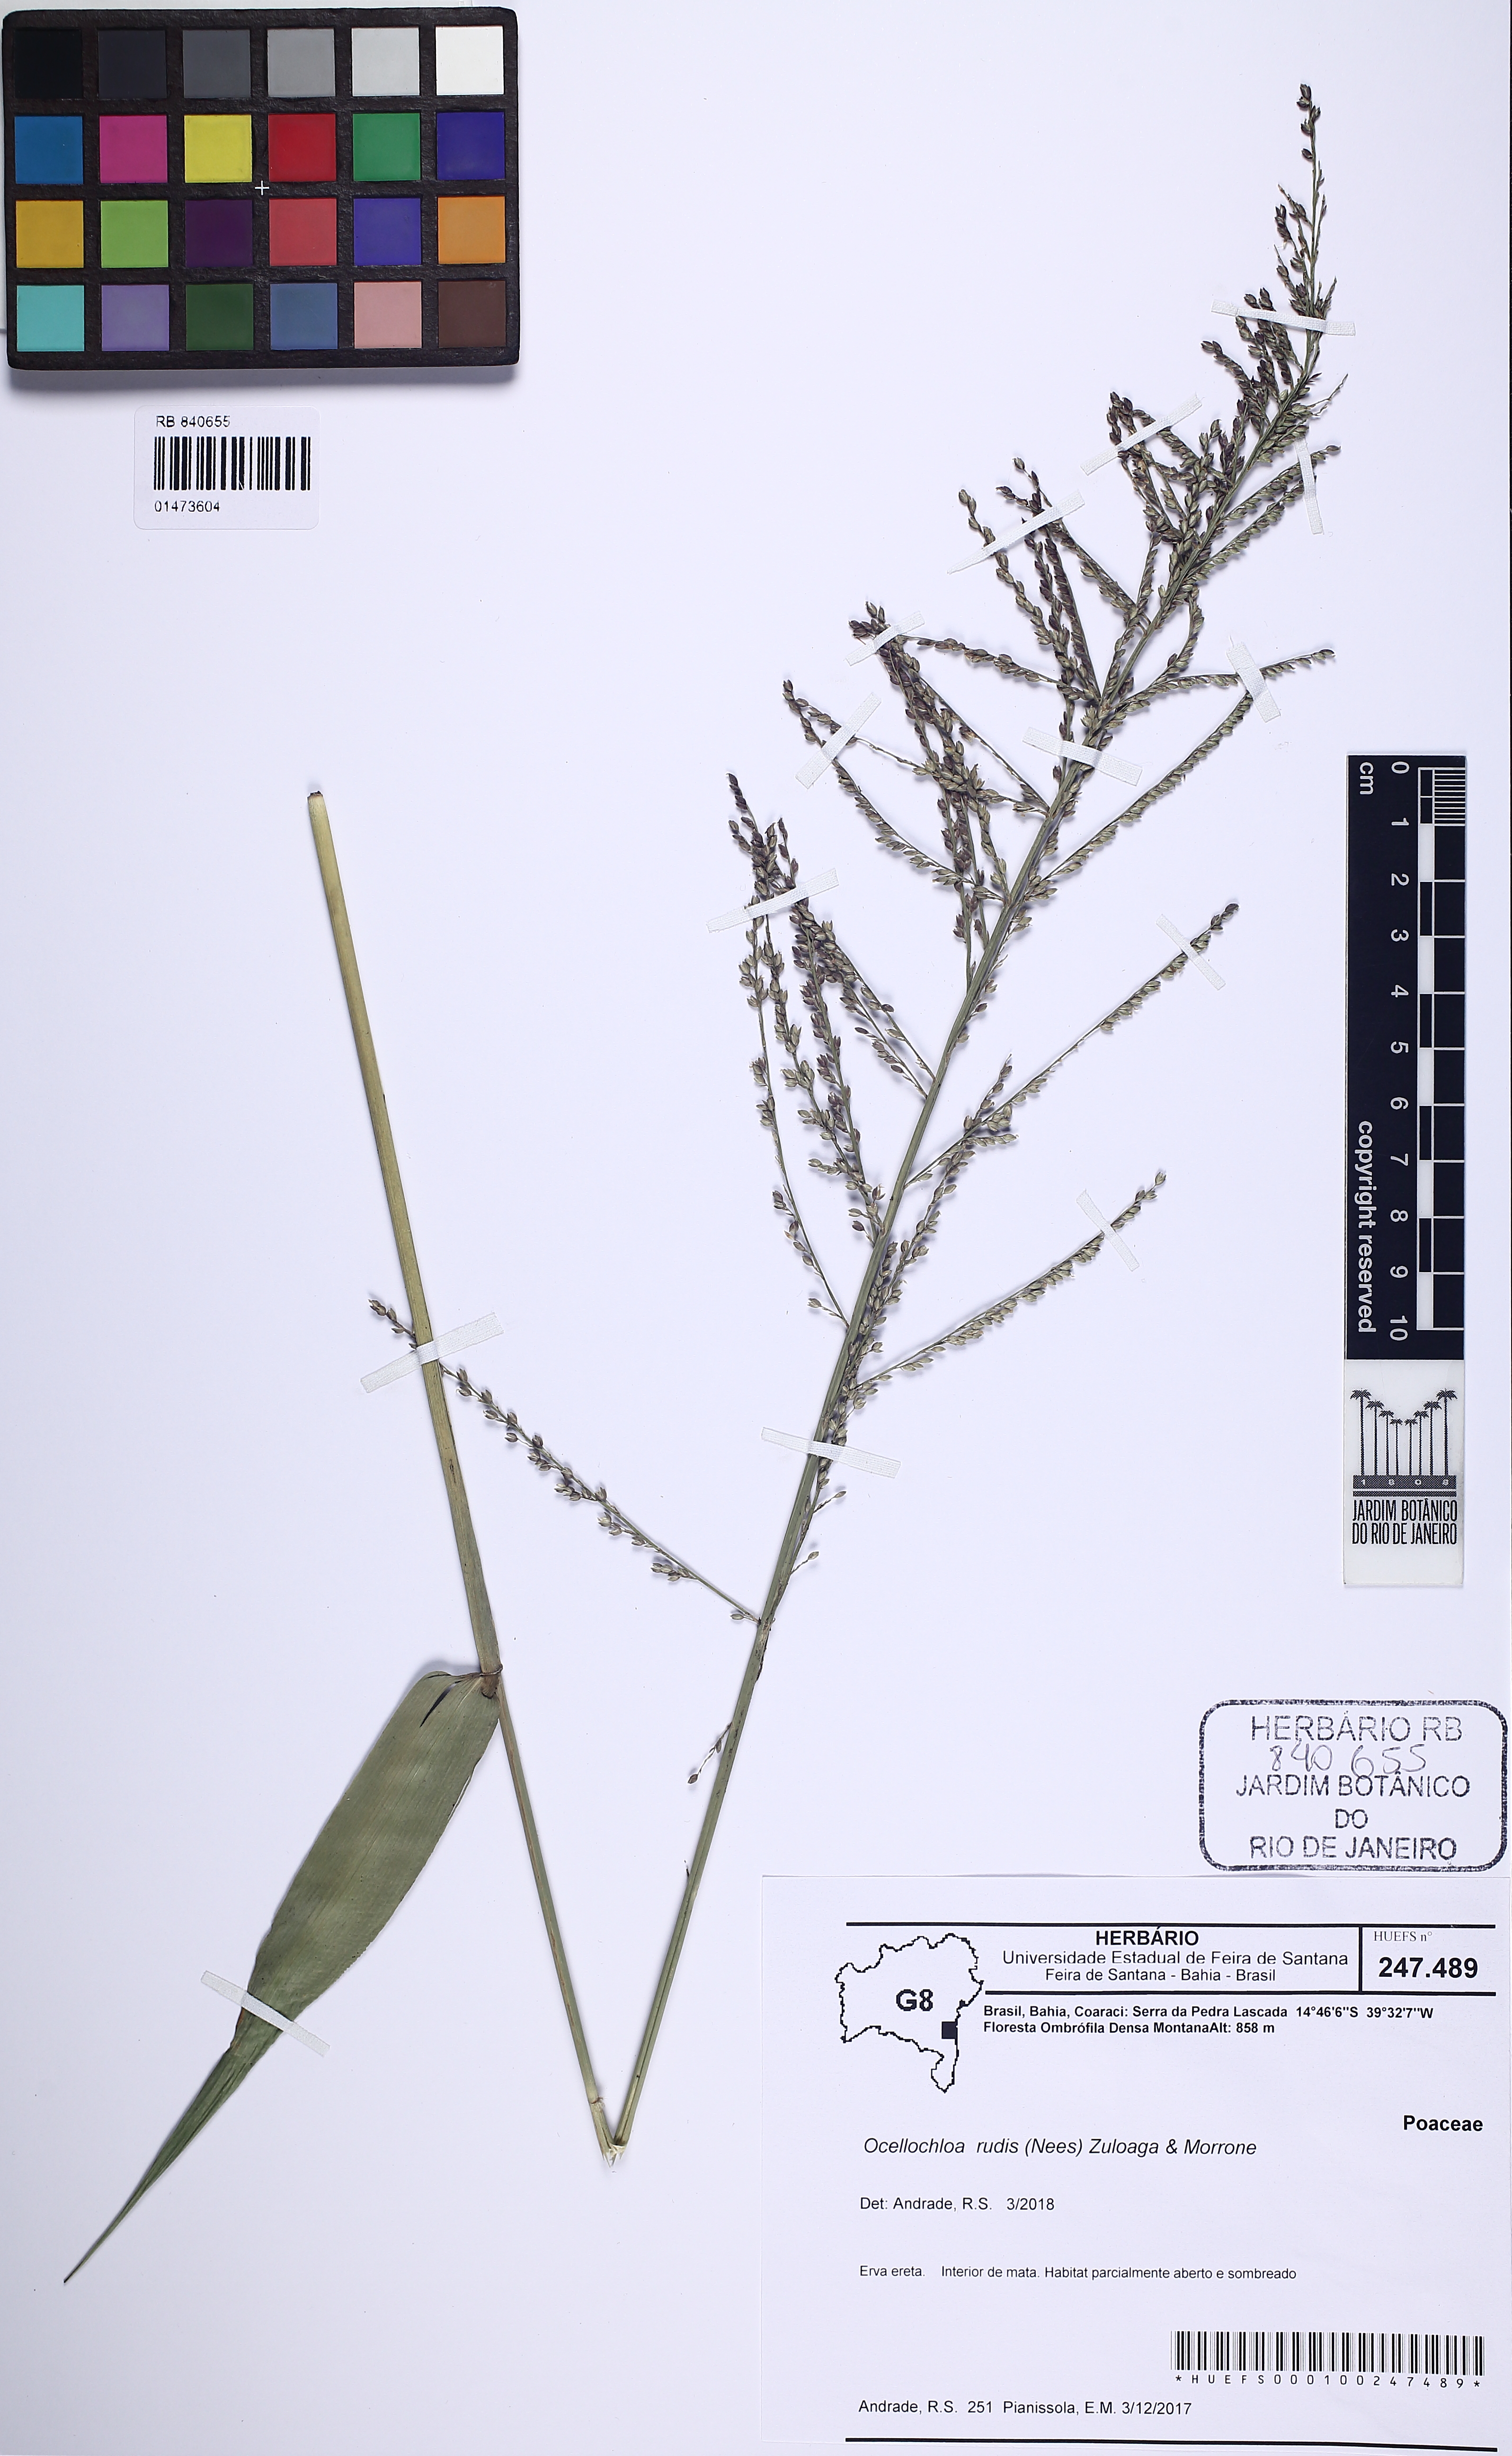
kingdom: Plantae
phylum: Tracheophyta
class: Liliopsida
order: Poales
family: Poaceae
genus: Ocellochloa
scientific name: Ocellochloa rudis
